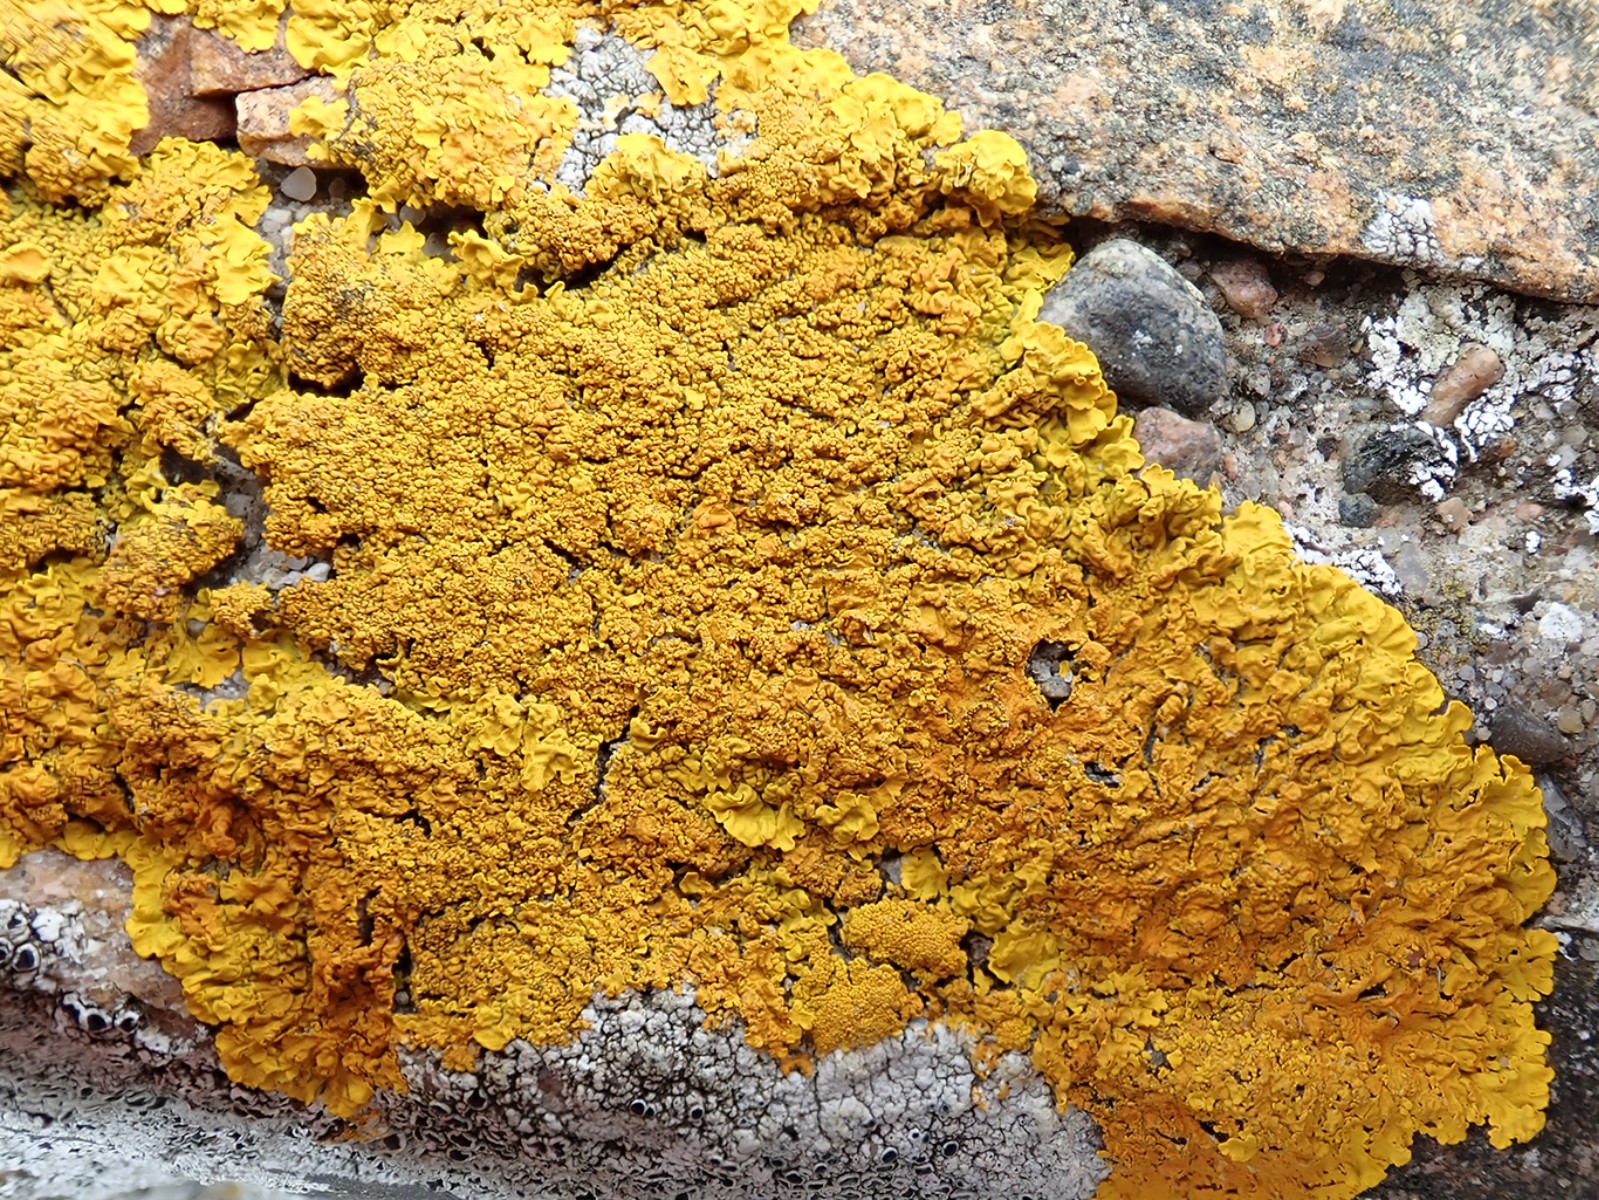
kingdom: Fungi
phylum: Ascomycota
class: Lecanoromycetes
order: Teloschistales
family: Teloschistaceae
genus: Xanthoria
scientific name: Xanthoria calcicola
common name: vortet væggelav
